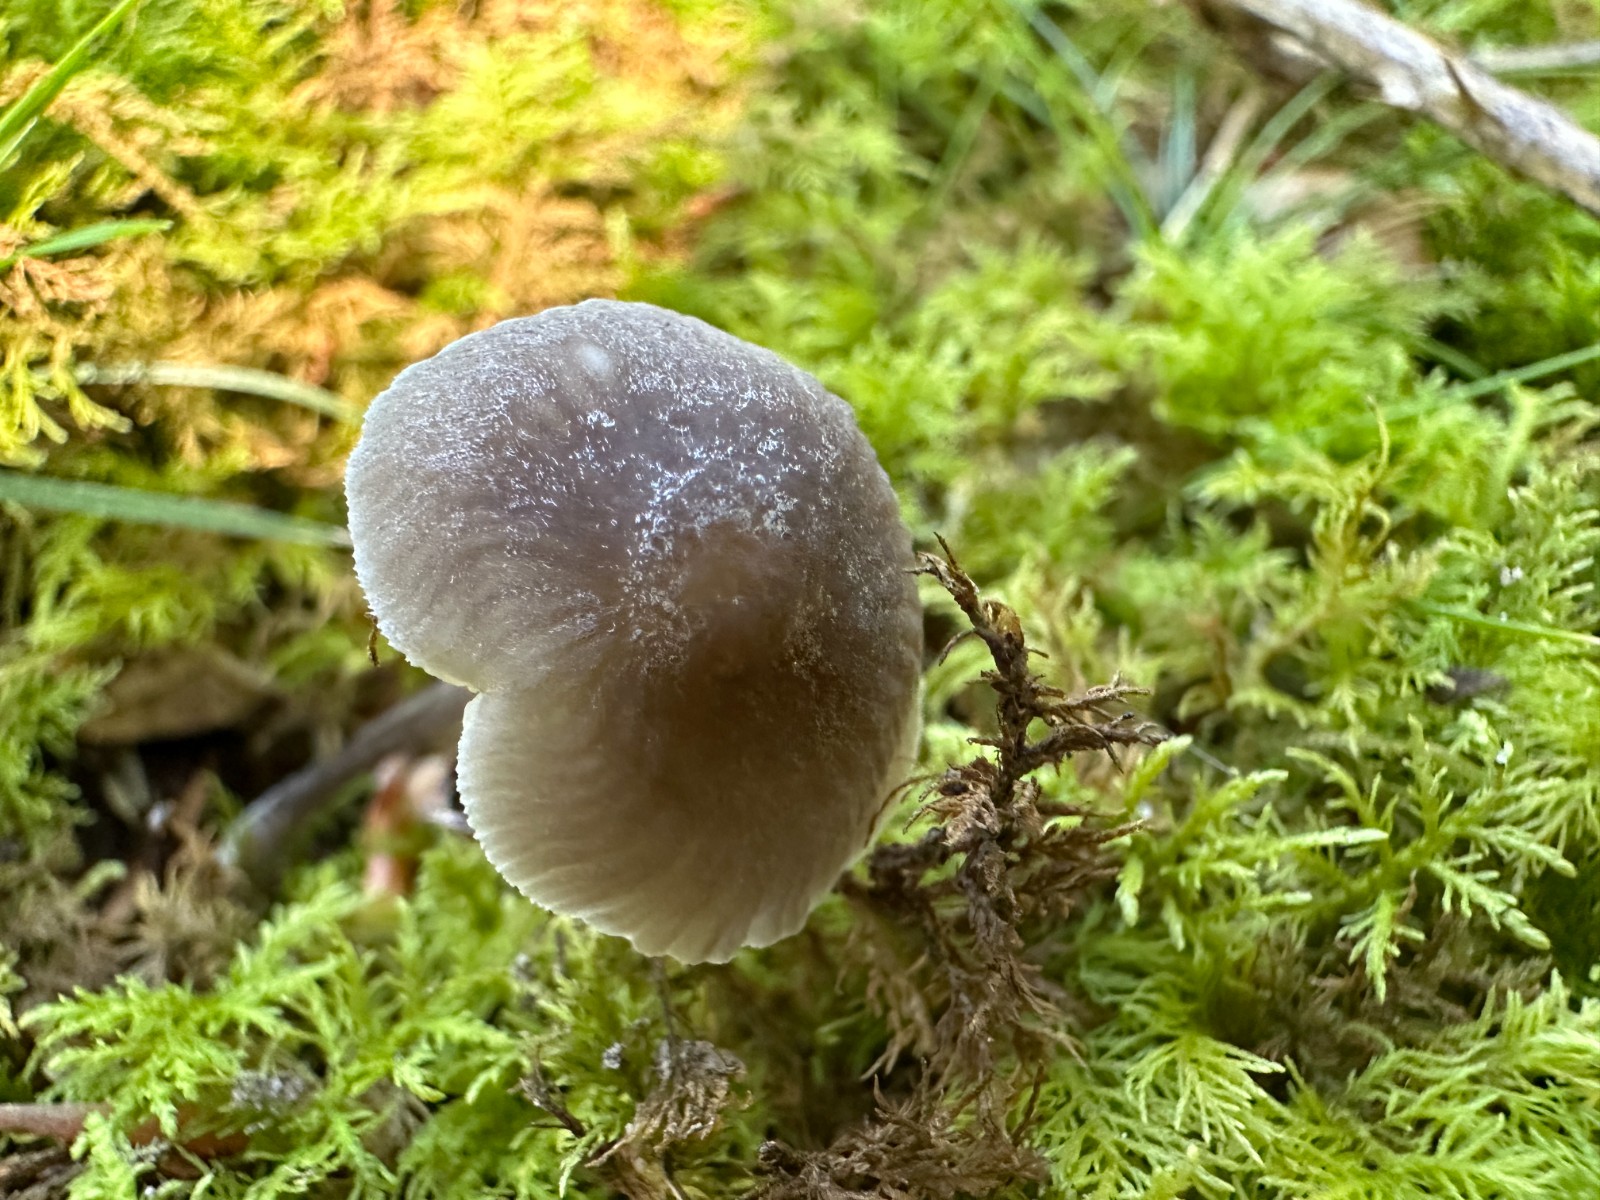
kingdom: Fungi
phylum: Basidiomycota
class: Agaricomycetes
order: Agaricales
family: Mycenaceae
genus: Mycena
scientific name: Mycena abramsii
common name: sommer-huesvamp
